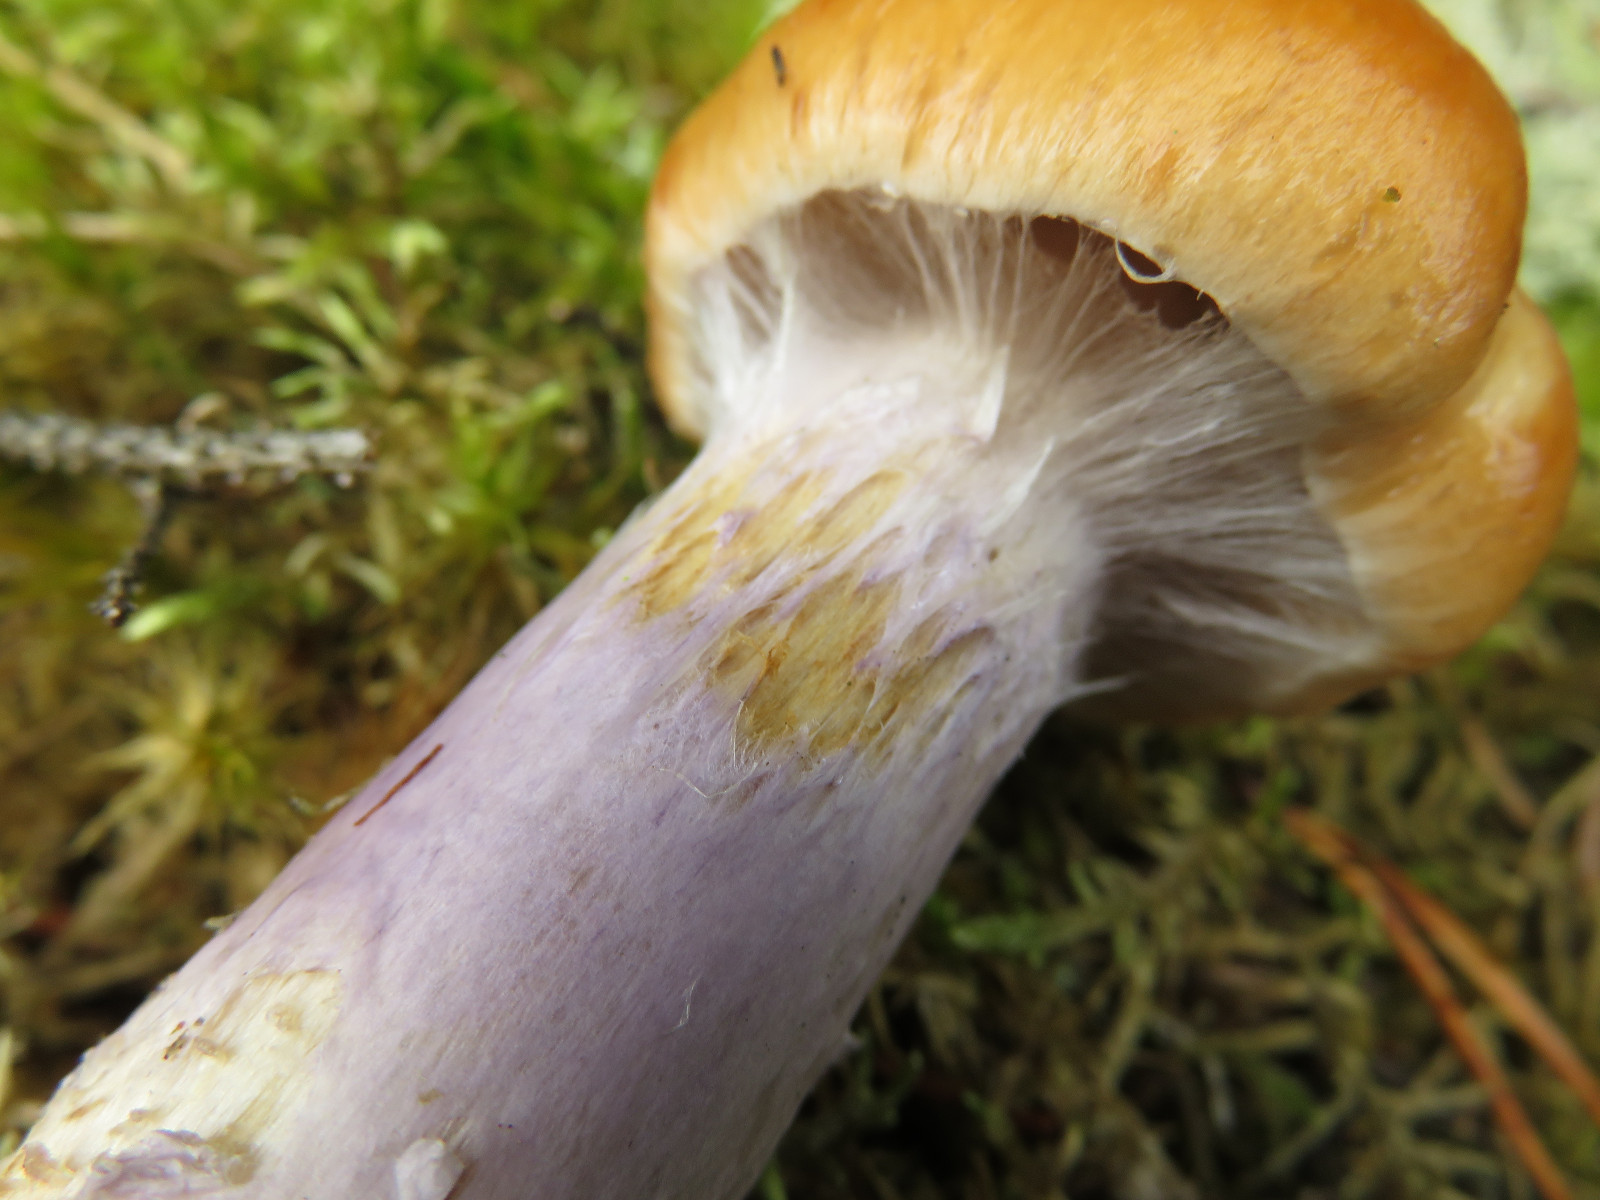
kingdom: Fungi
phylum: Basidiomycota
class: Agaricomycetes
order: Agaricales
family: Cortinariaceae
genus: Cortinarius
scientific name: Cortinarius
